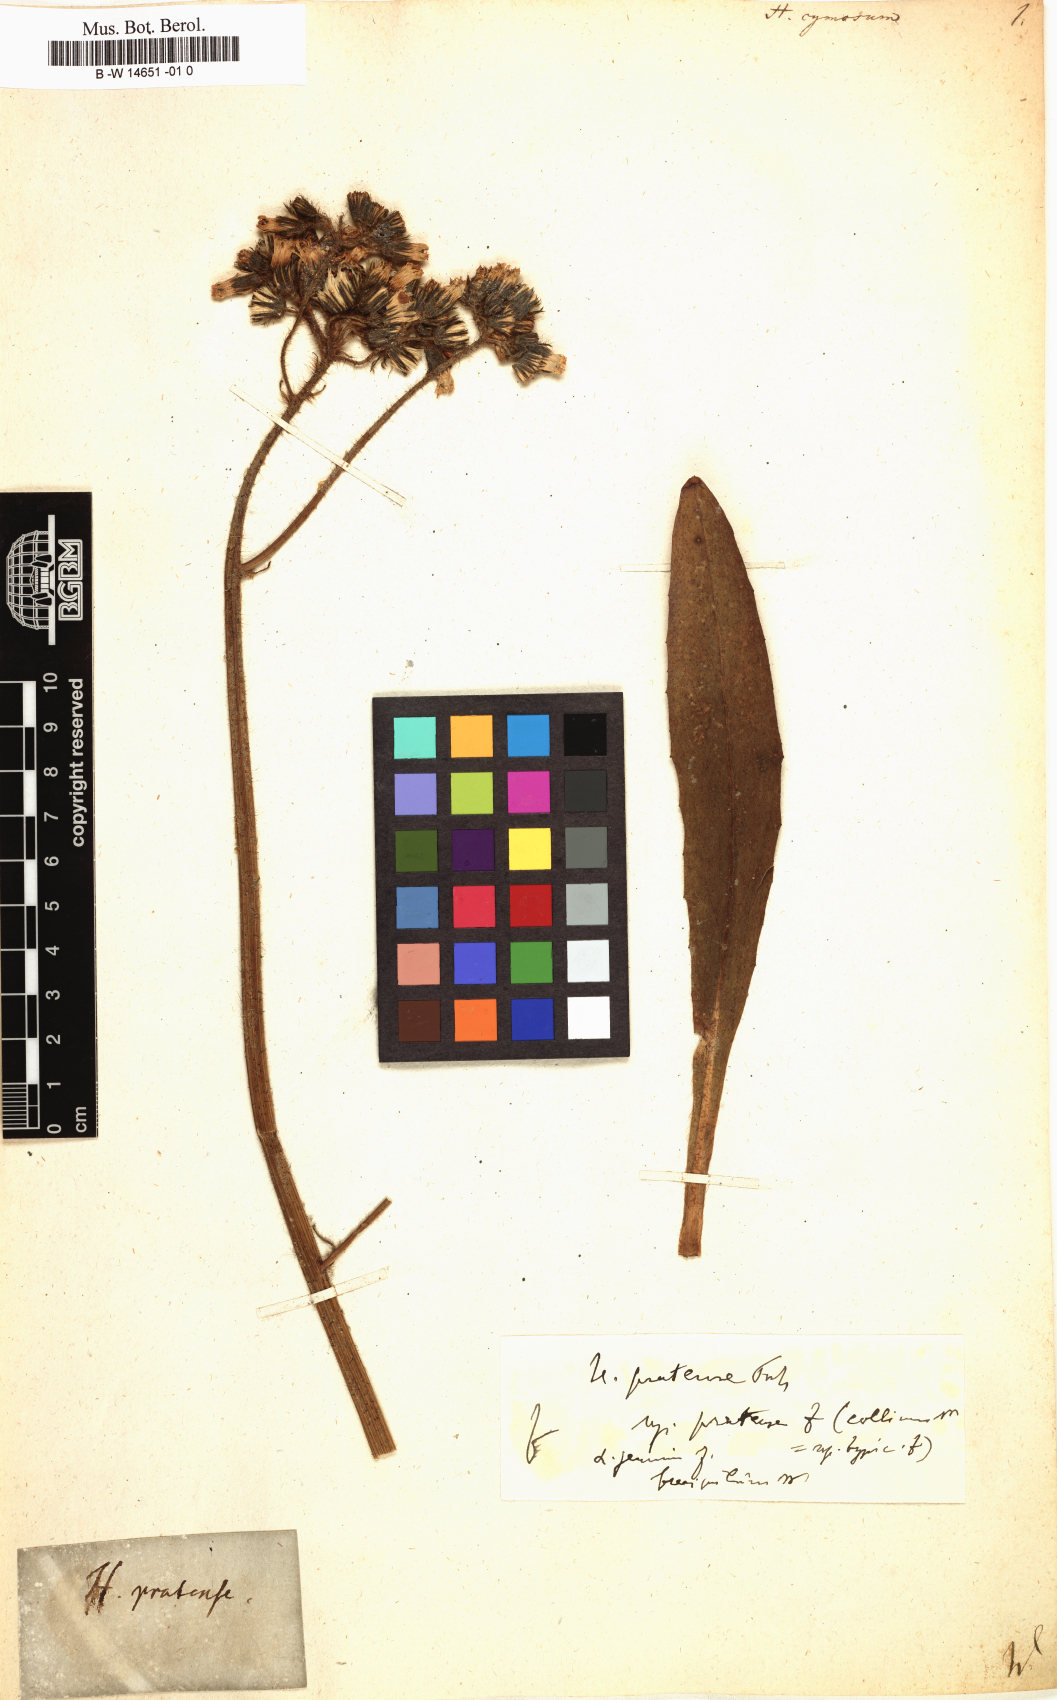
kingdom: Plantae
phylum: Tracheophyta
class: Magnoliopsida
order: Asterales
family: Asteraceae
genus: Hieracium
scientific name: Hieracium cymosum
